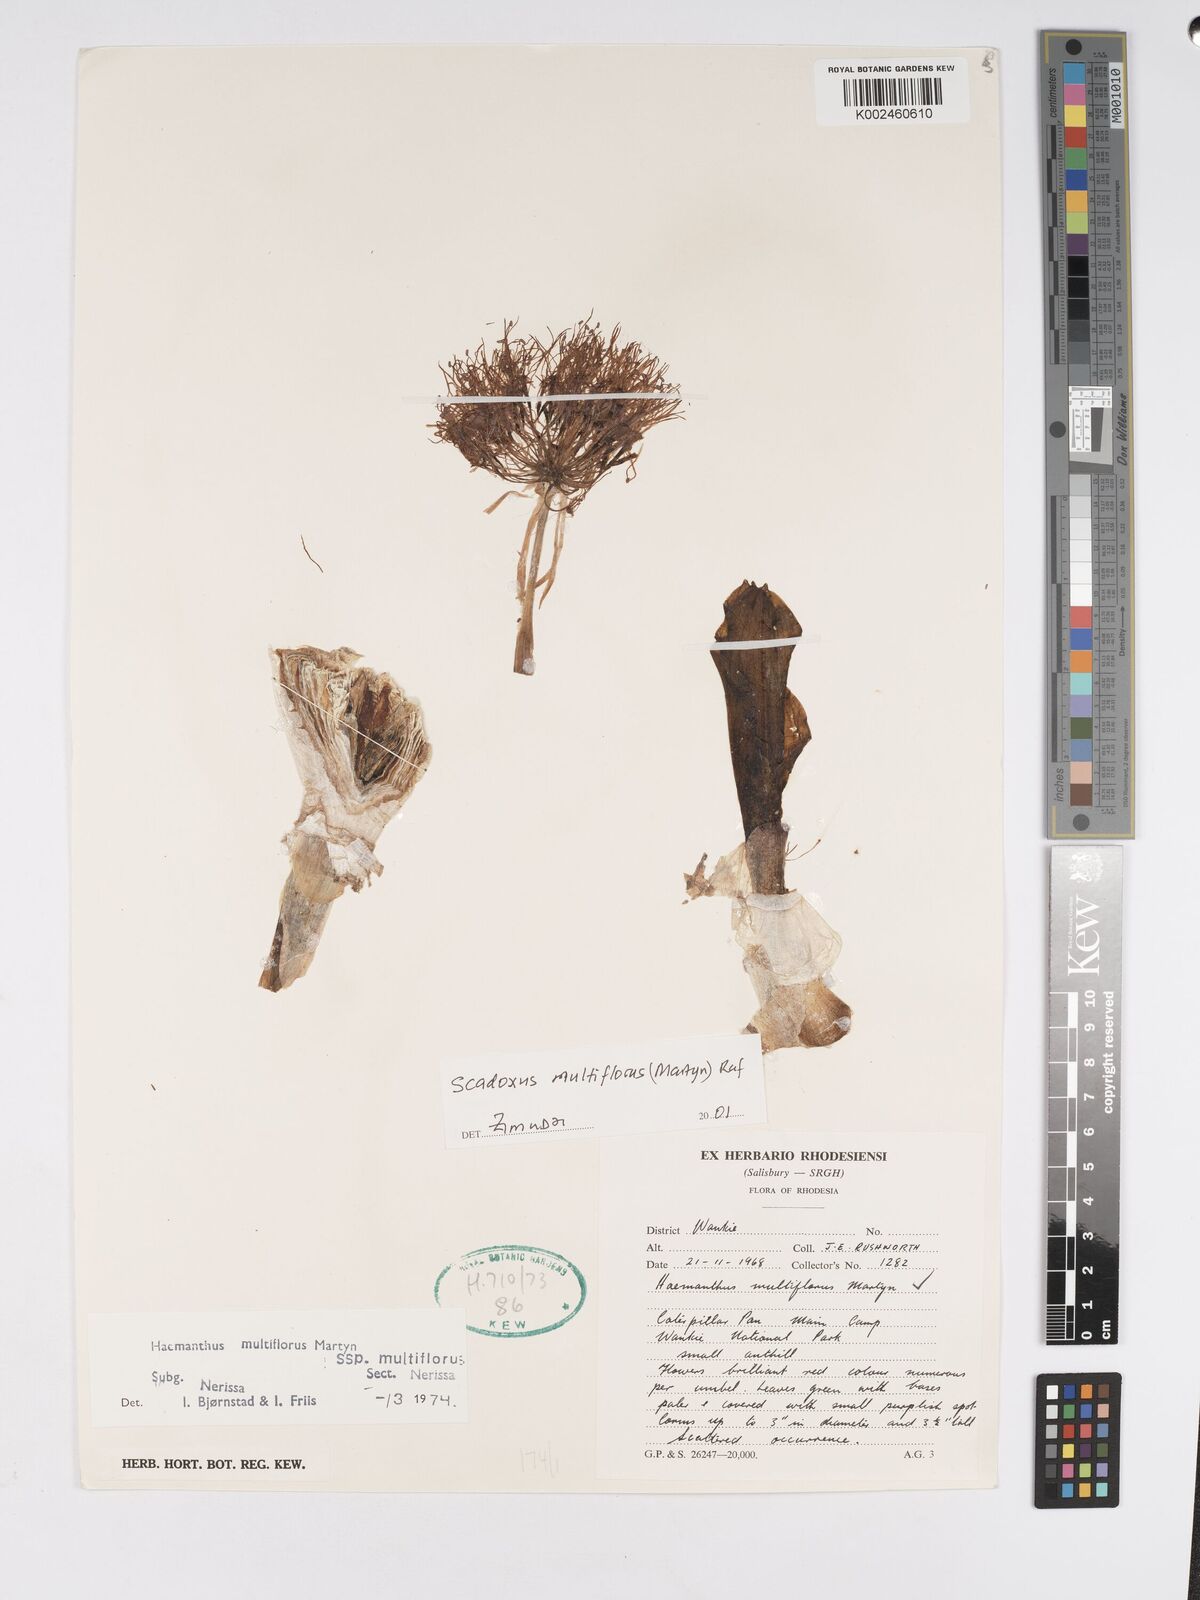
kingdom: Plantae
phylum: Tracheophyta
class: Liliopsida
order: Asparagales
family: Amaryllidaceae
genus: Scadoxus
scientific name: Scadoxus multiflorus
